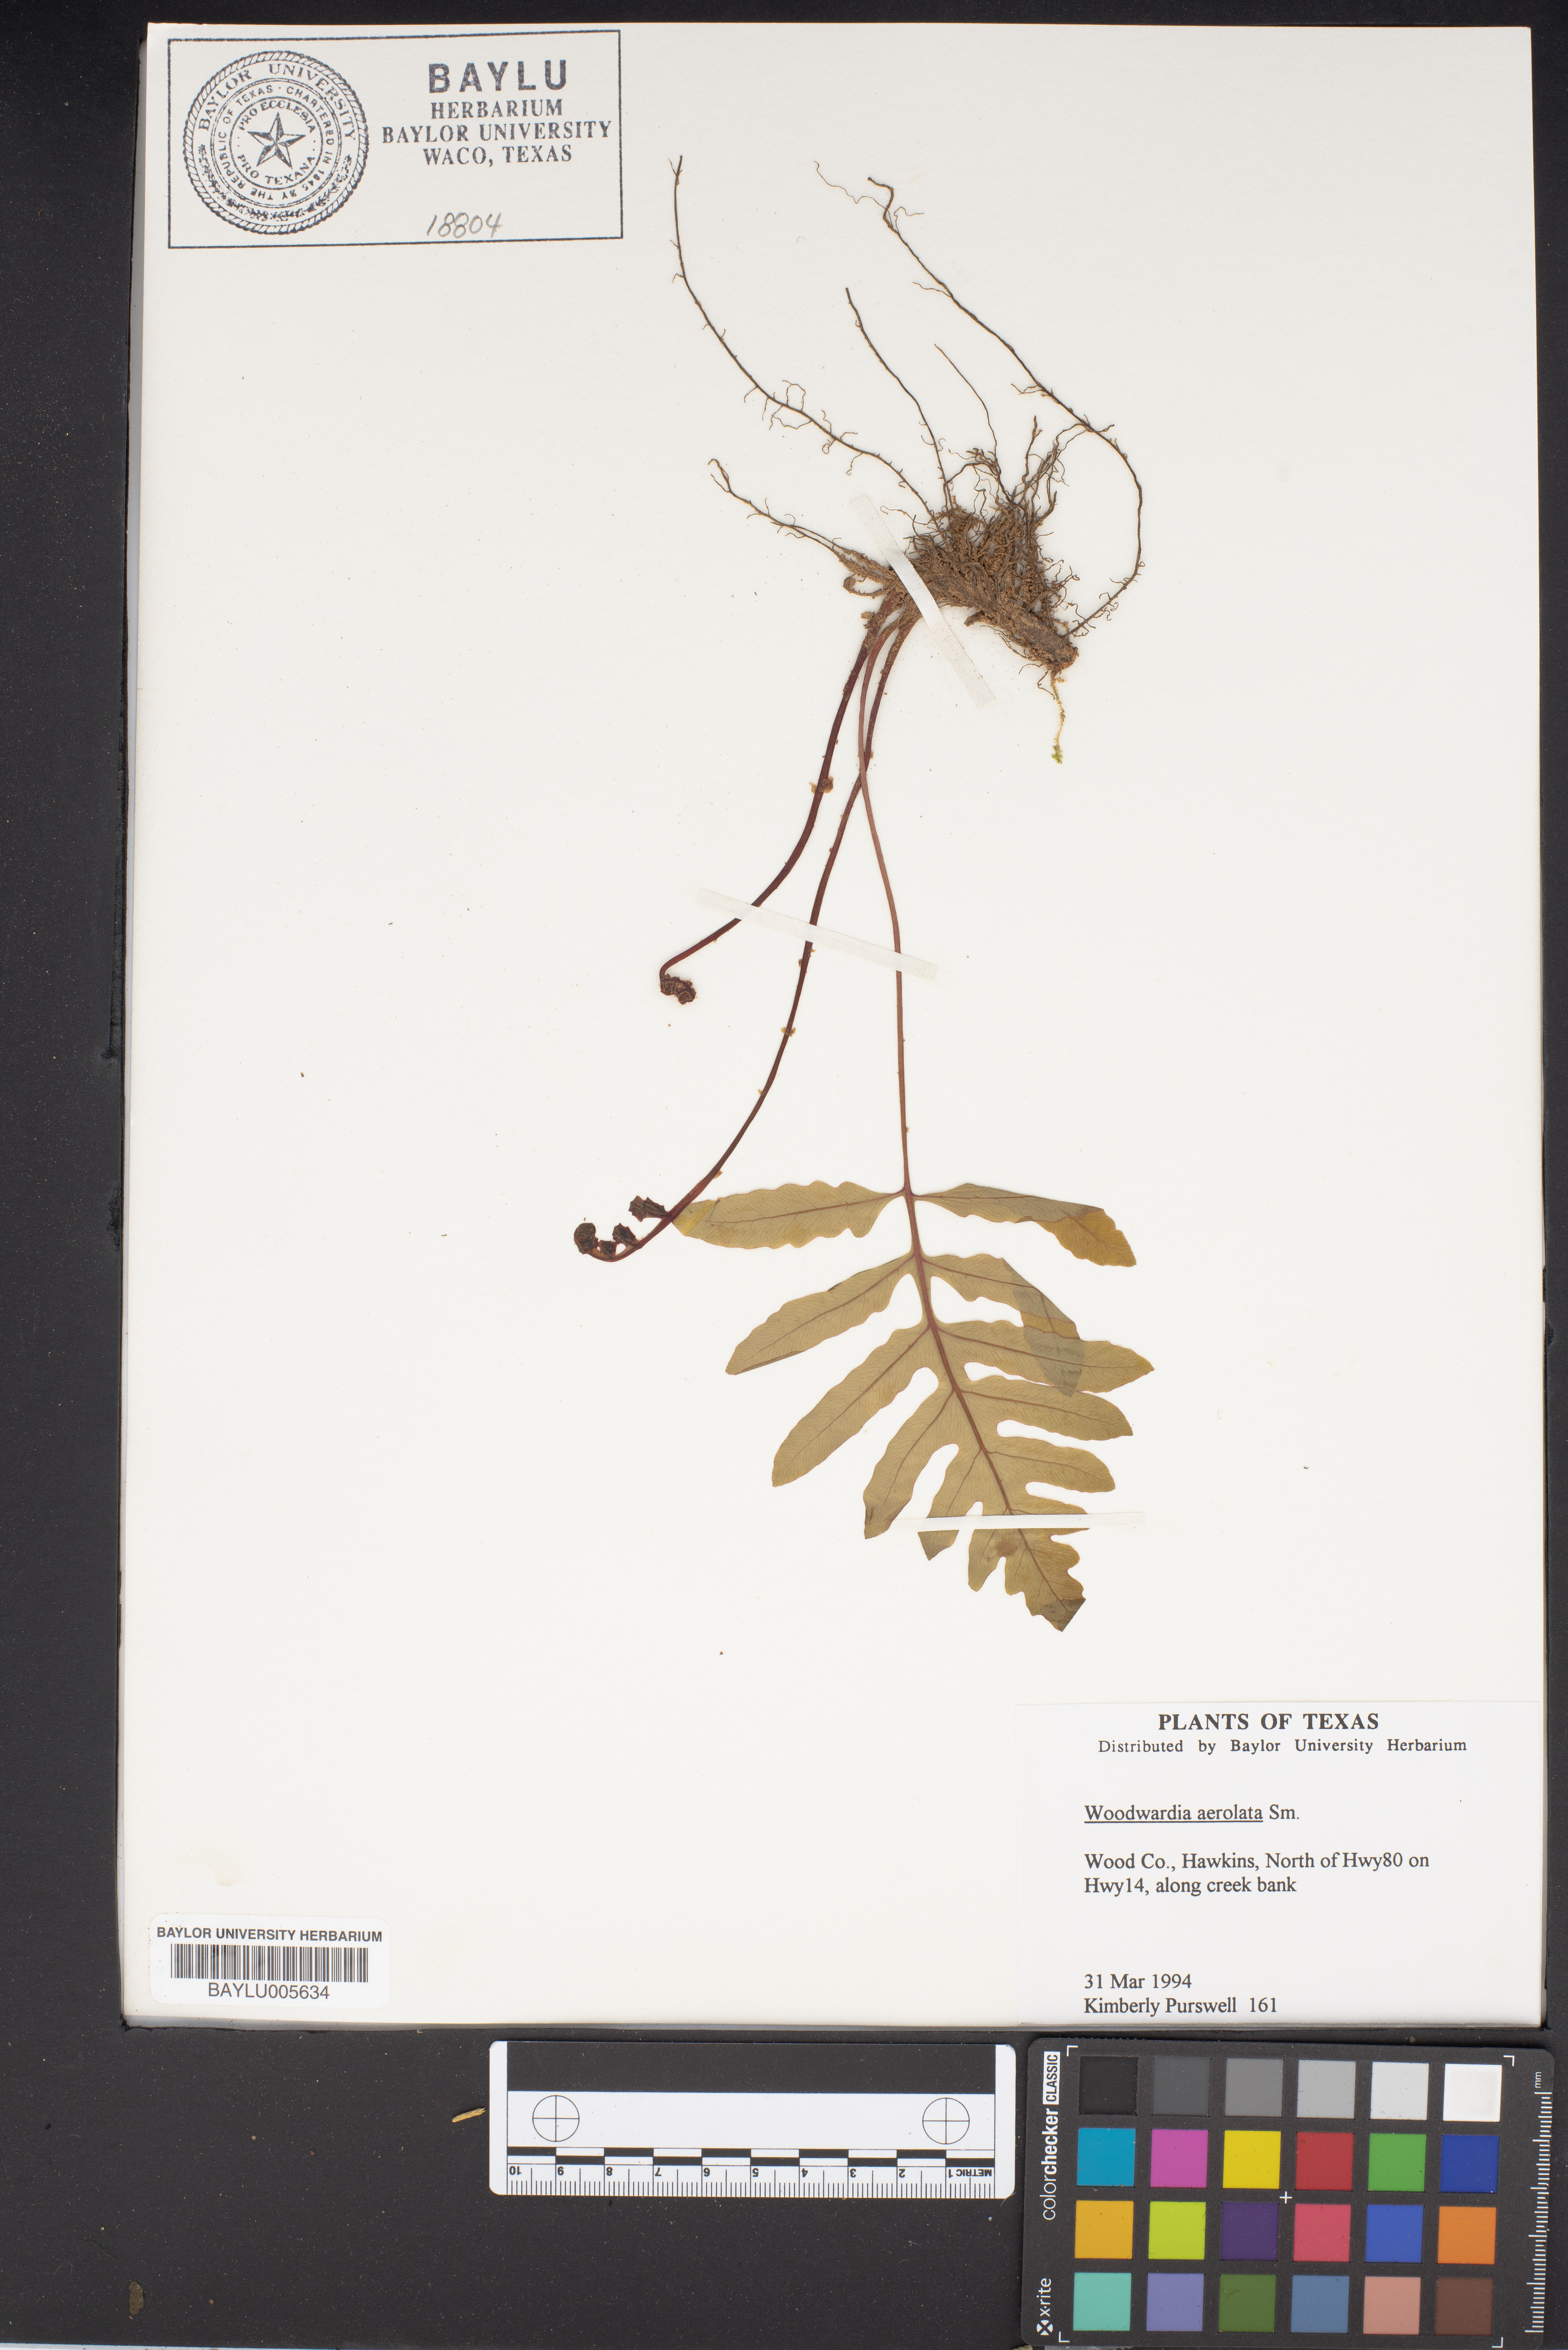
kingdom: Plantae
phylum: Tracheophyta
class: Polypodiopsida
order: Polypodiales
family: Blechnaceae
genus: Lorinseria
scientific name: Lorinseria areolata
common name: Dwarf chain fern
